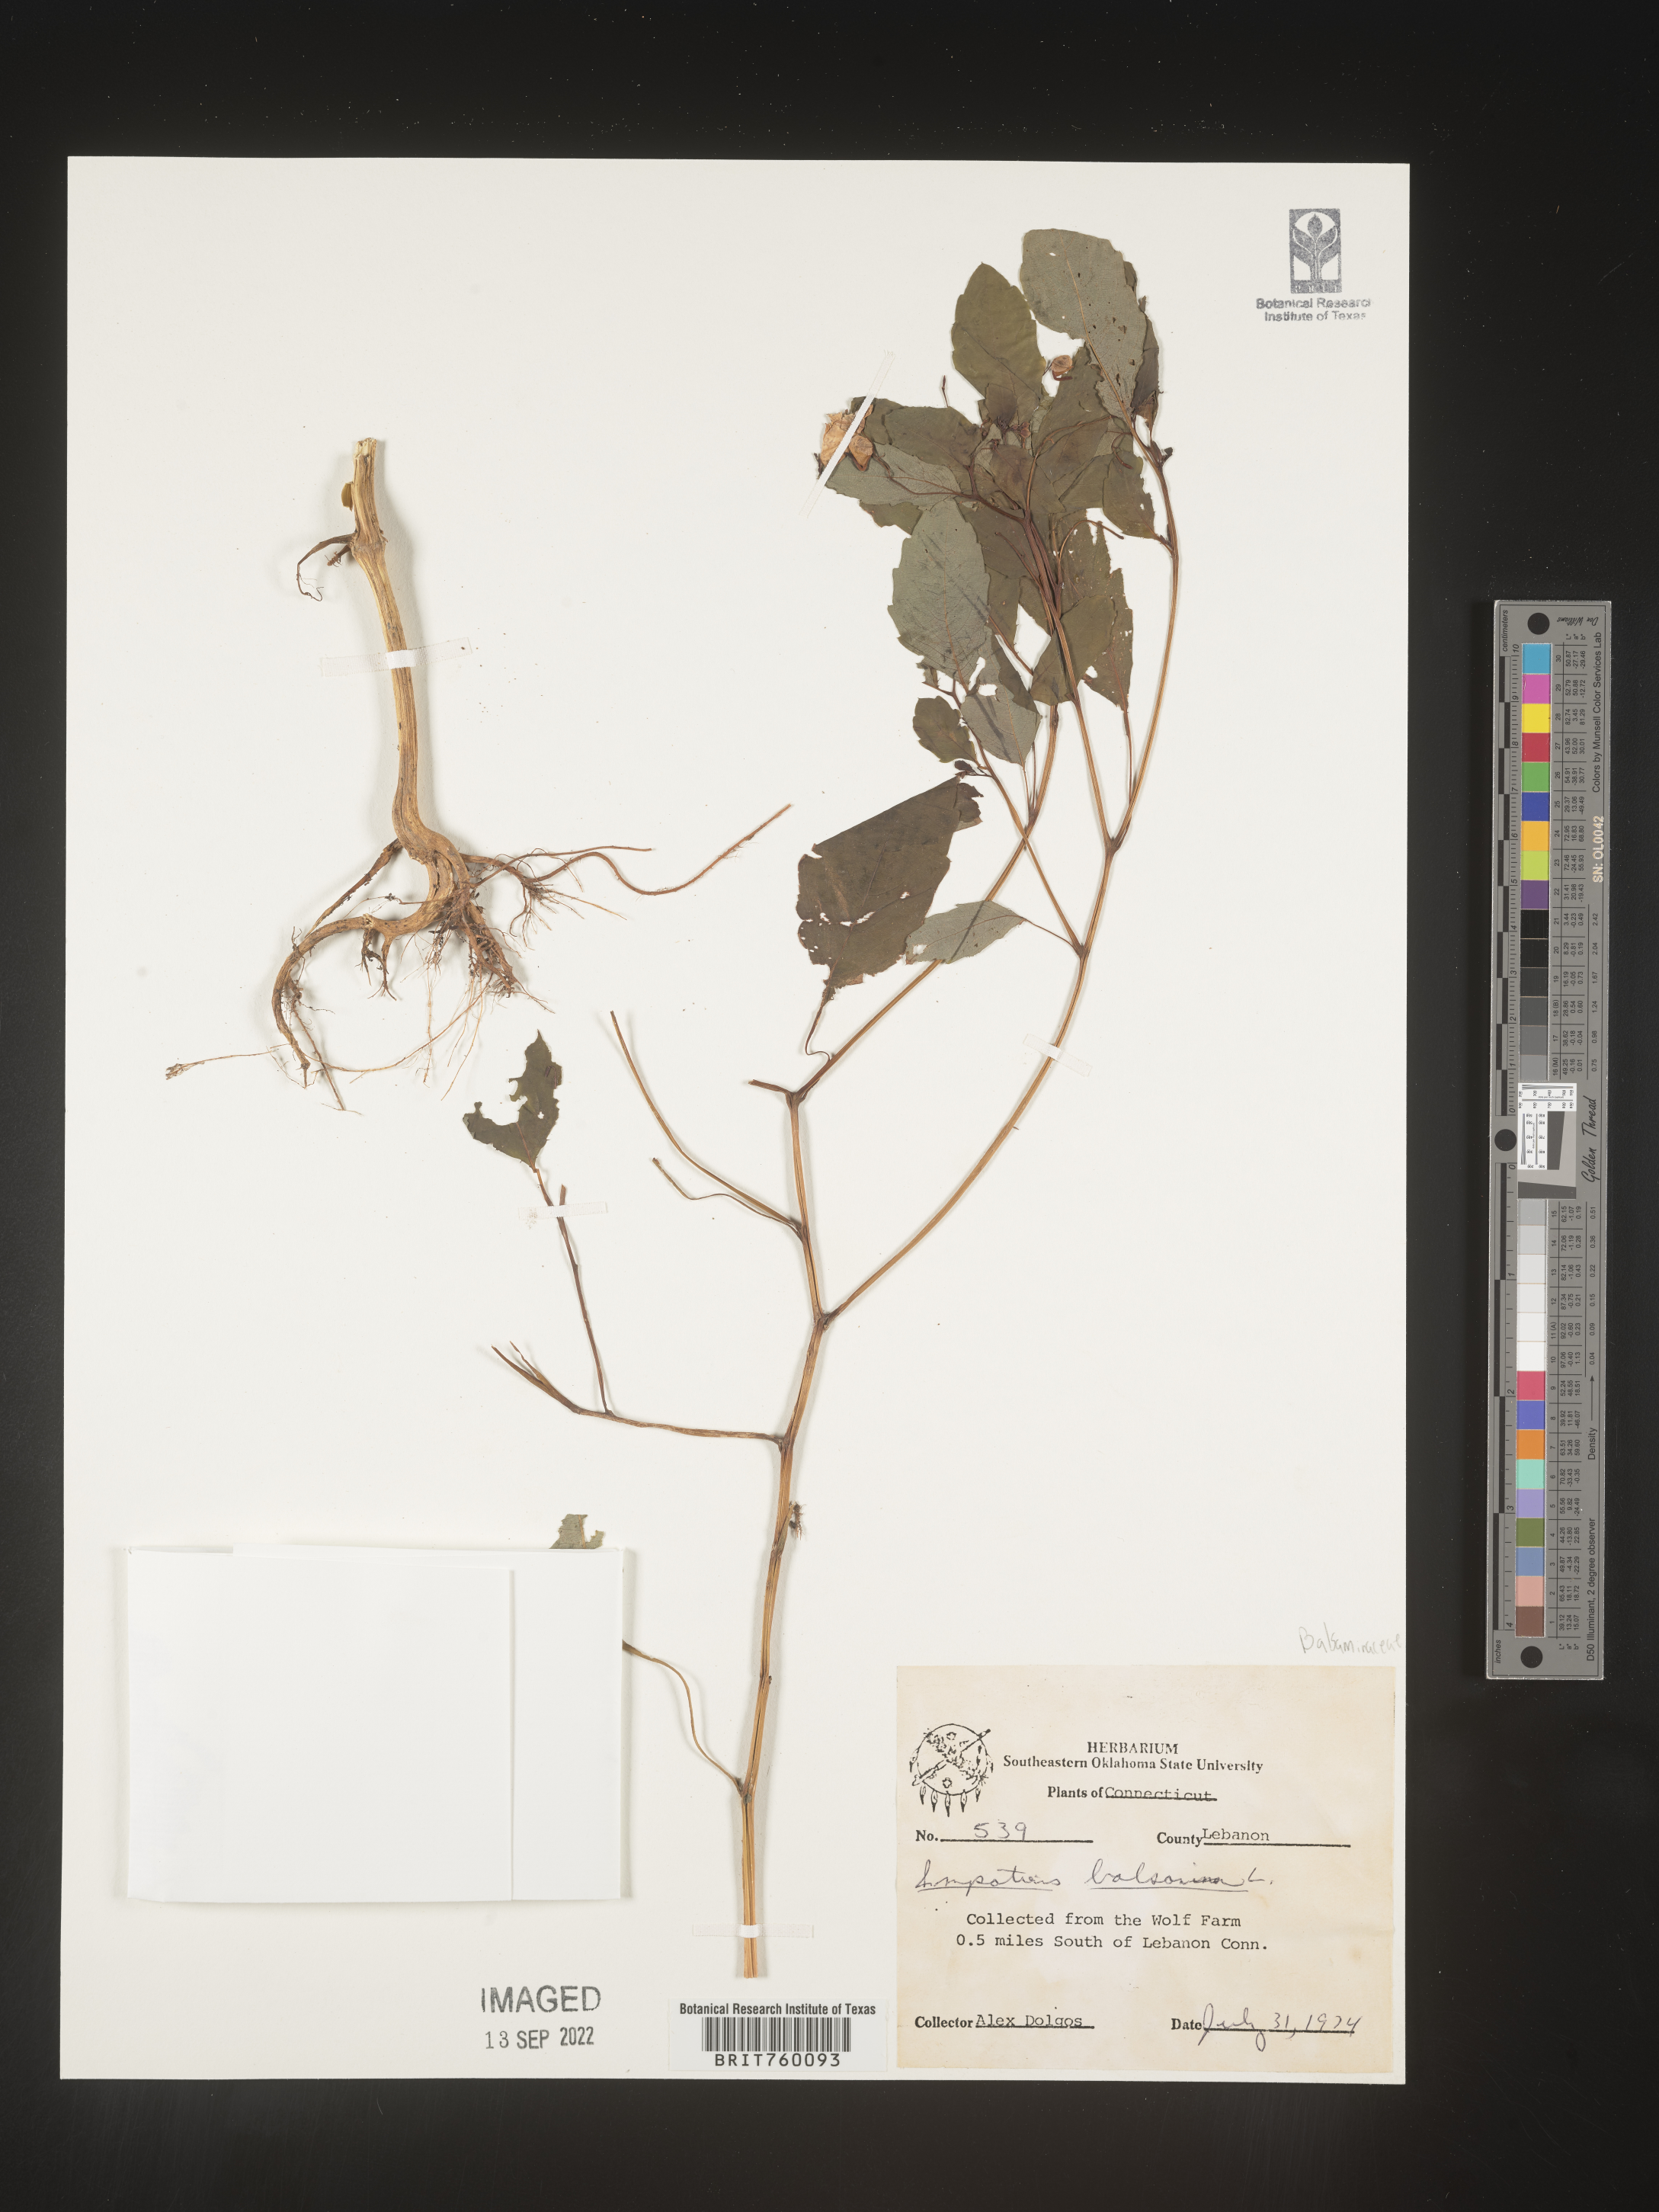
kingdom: Plantae
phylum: Tracheophyta
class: Magnoliopsida
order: Ericales
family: Balsaminaceae
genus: Impatiens
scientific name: Impatiens
